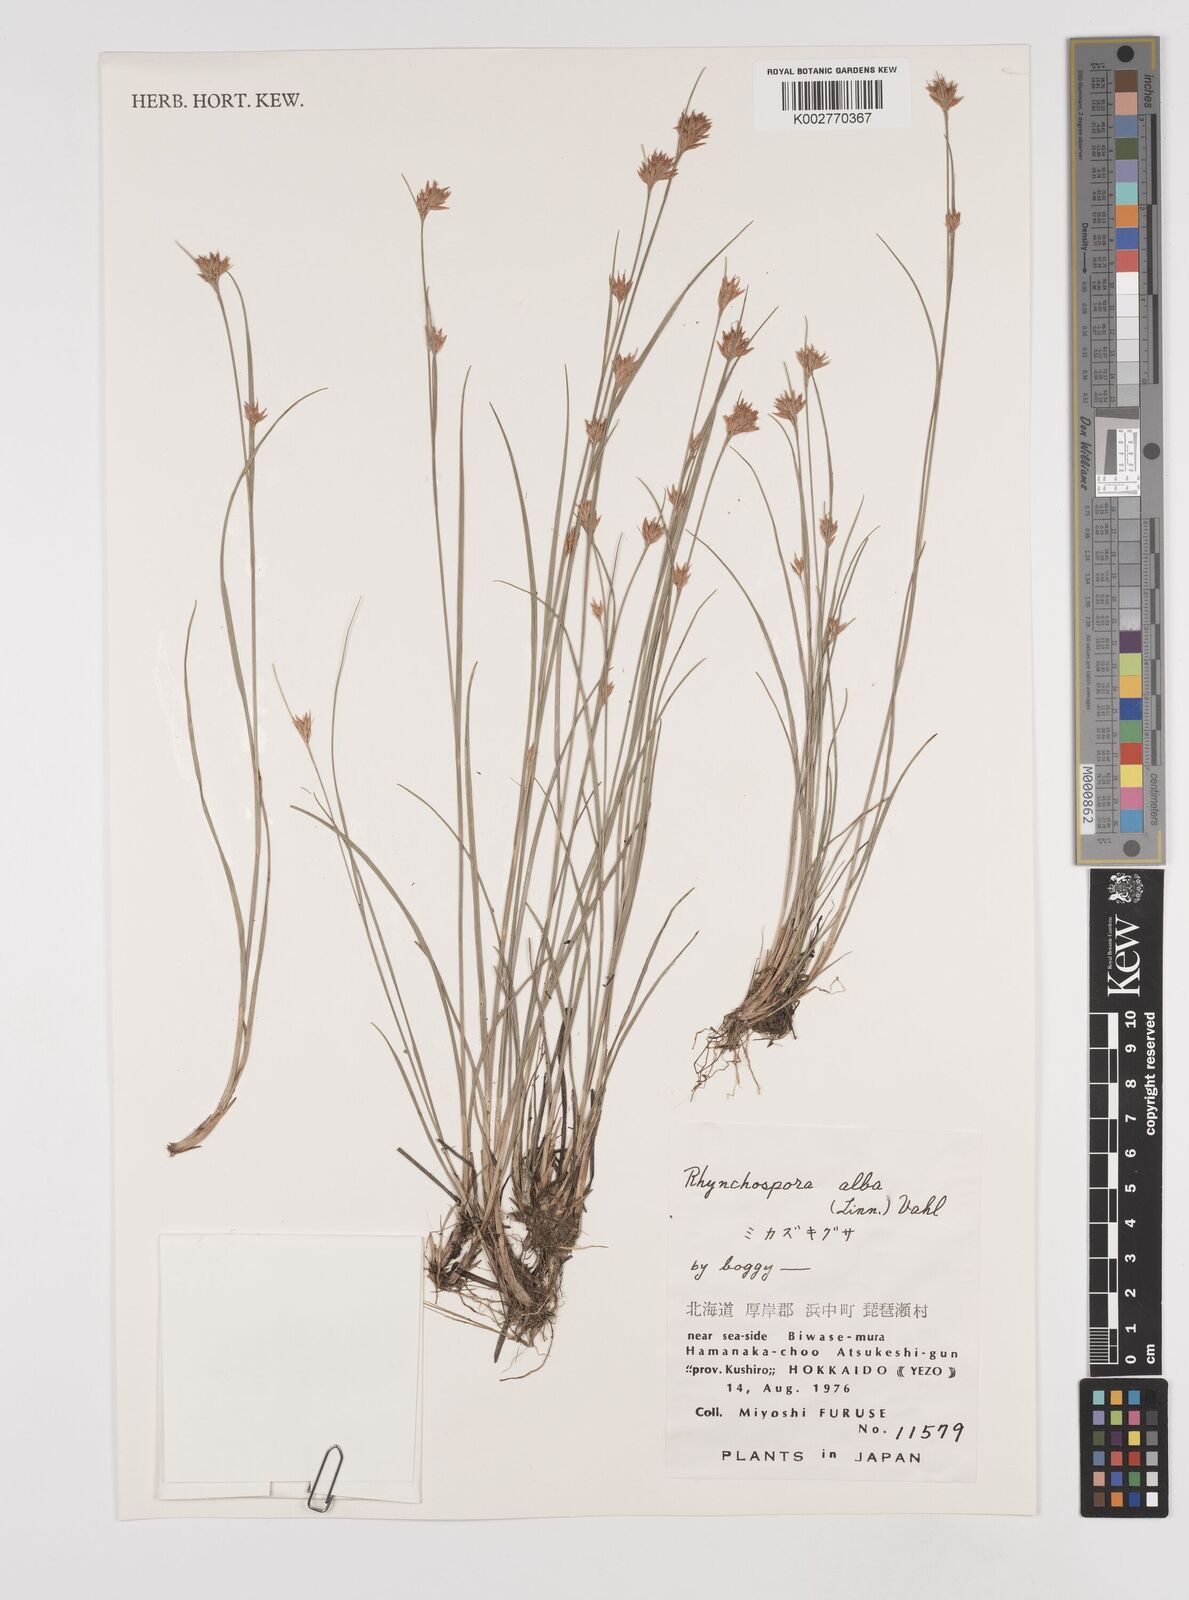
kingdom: Plantae
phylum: Tracheophyta
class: Liliopsida
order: Poales
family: Cyperaceae
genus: Rhynchospora
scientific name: Rhynchospora alba
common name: White beak-sedge
